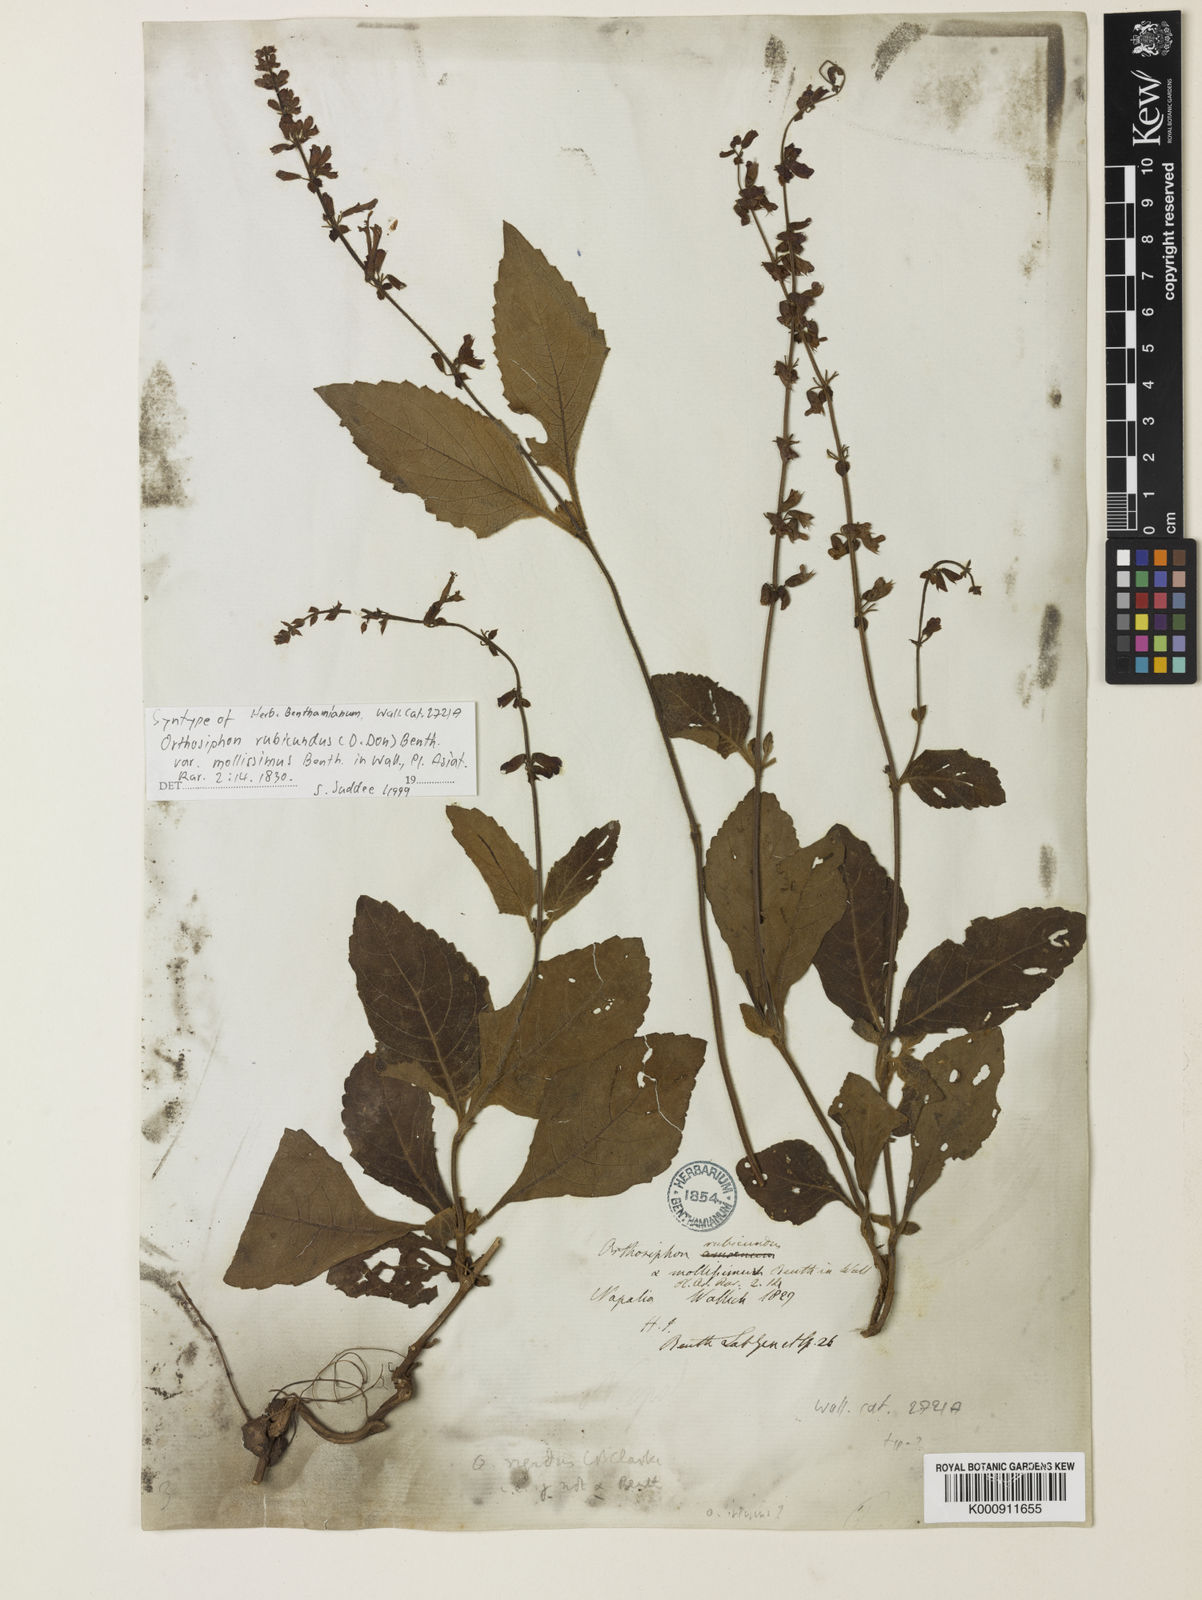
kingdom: Plantae
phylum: Tracheophyta
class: Magnoliopsida
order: Lamiales
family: Lamiaceae
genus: Orthosiphon
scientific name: Orthosiphon rubicundus
